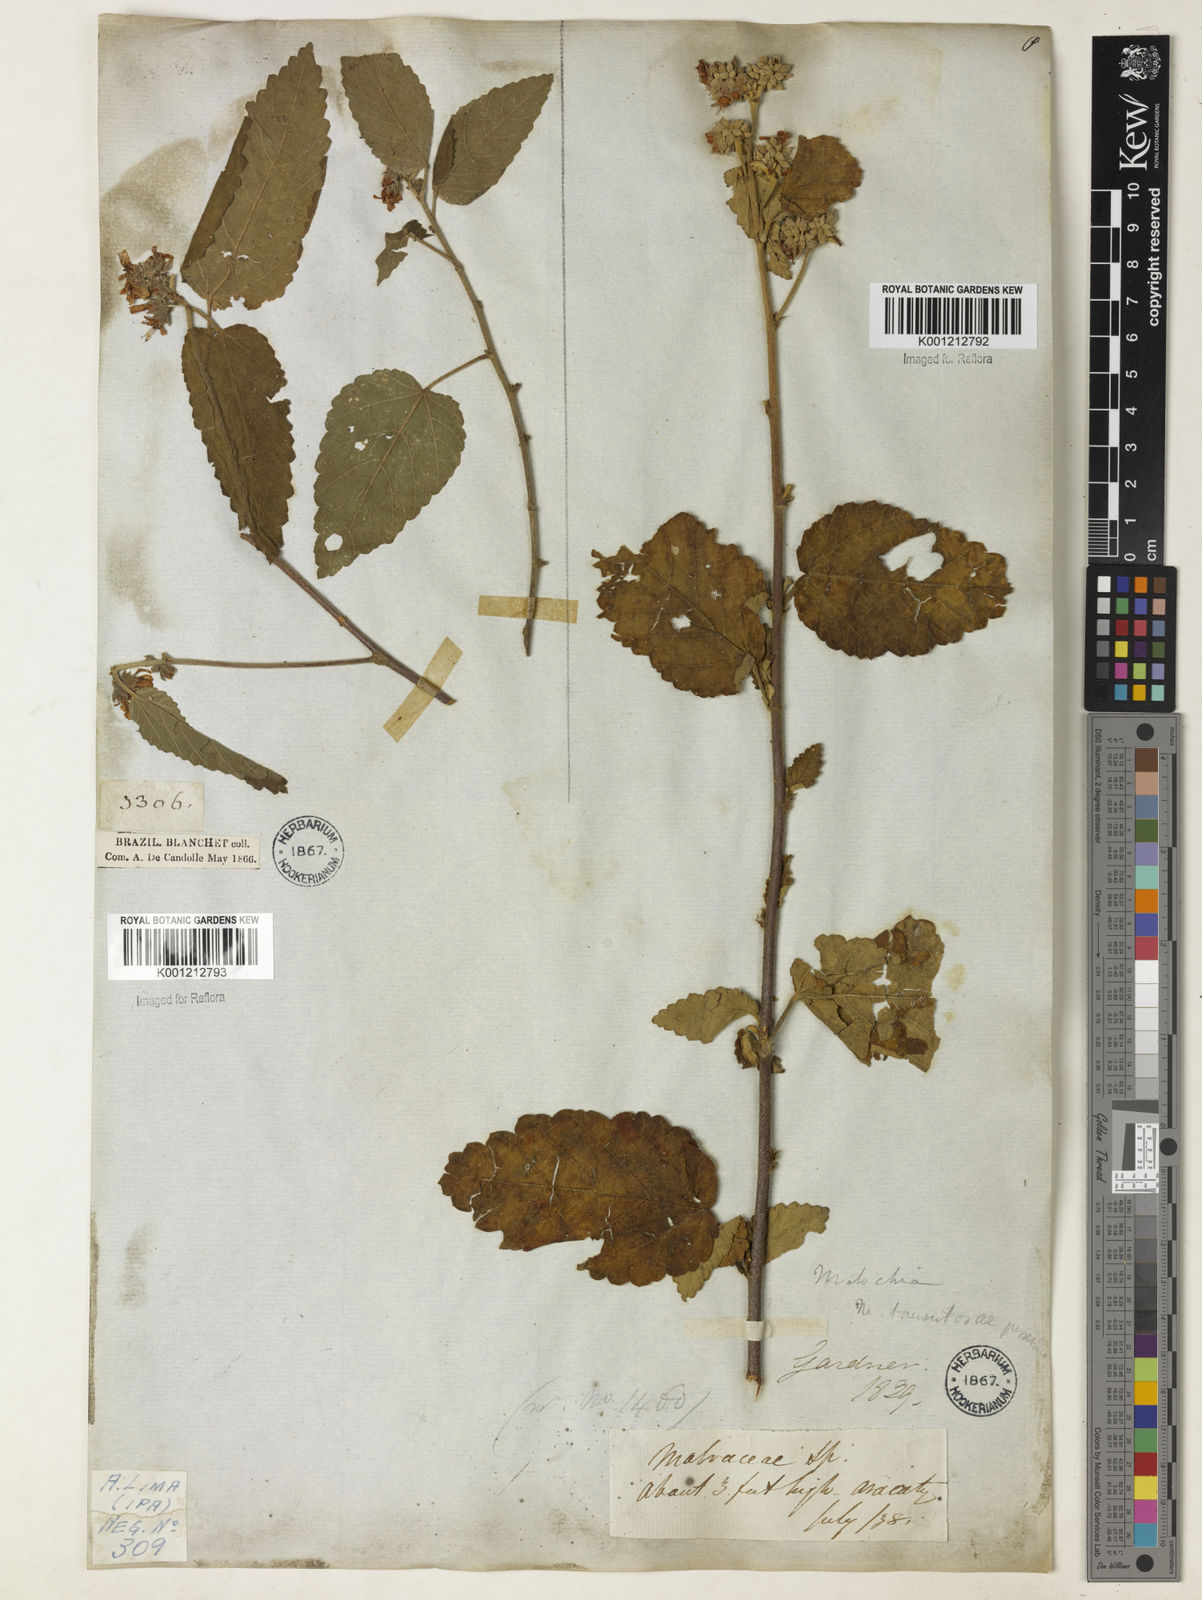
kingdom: Plantae
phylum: Tracheophyta
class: Magnoliopsida
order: Malvales
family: Malvaceae
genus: Melochia
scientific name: Melochia betonicifolia
